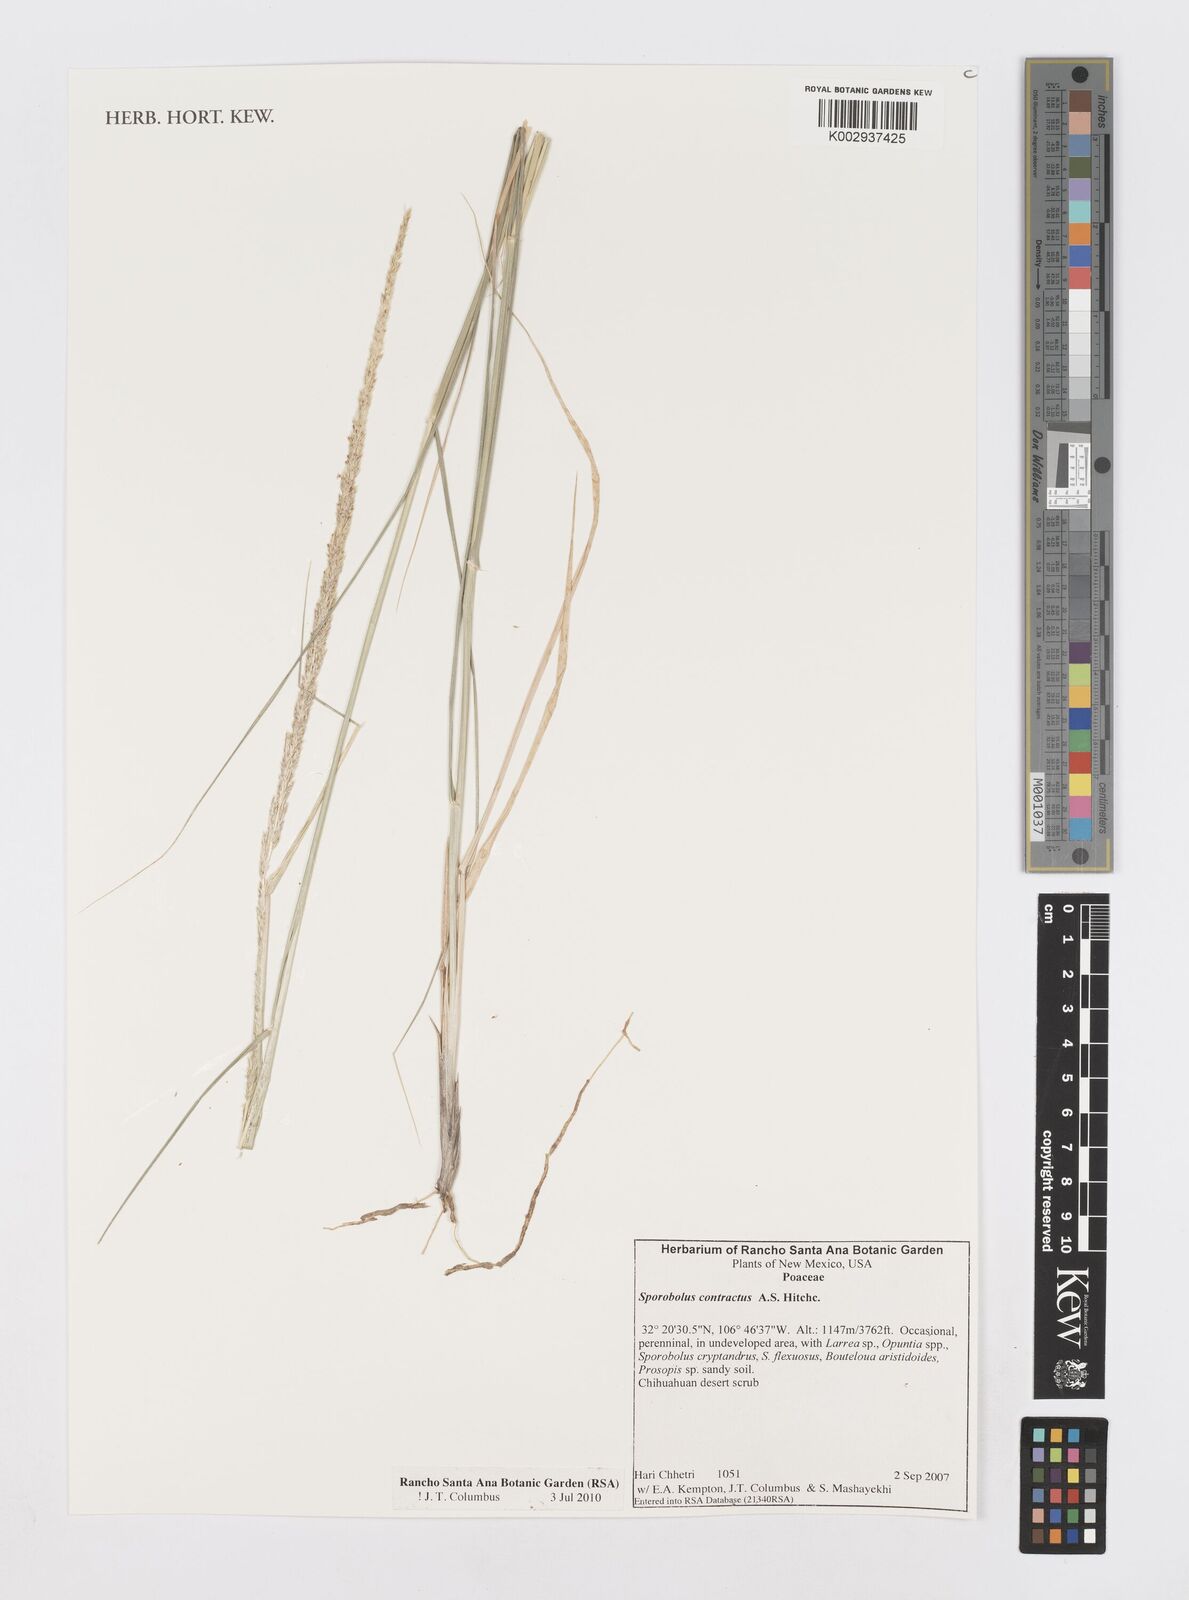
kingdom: Plantae
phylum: Tracheophyta
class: Liliopsida
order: Poales
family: Poaceae
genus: Sporobolus
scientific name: Sporobolus contractus
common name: Spike dropseed
